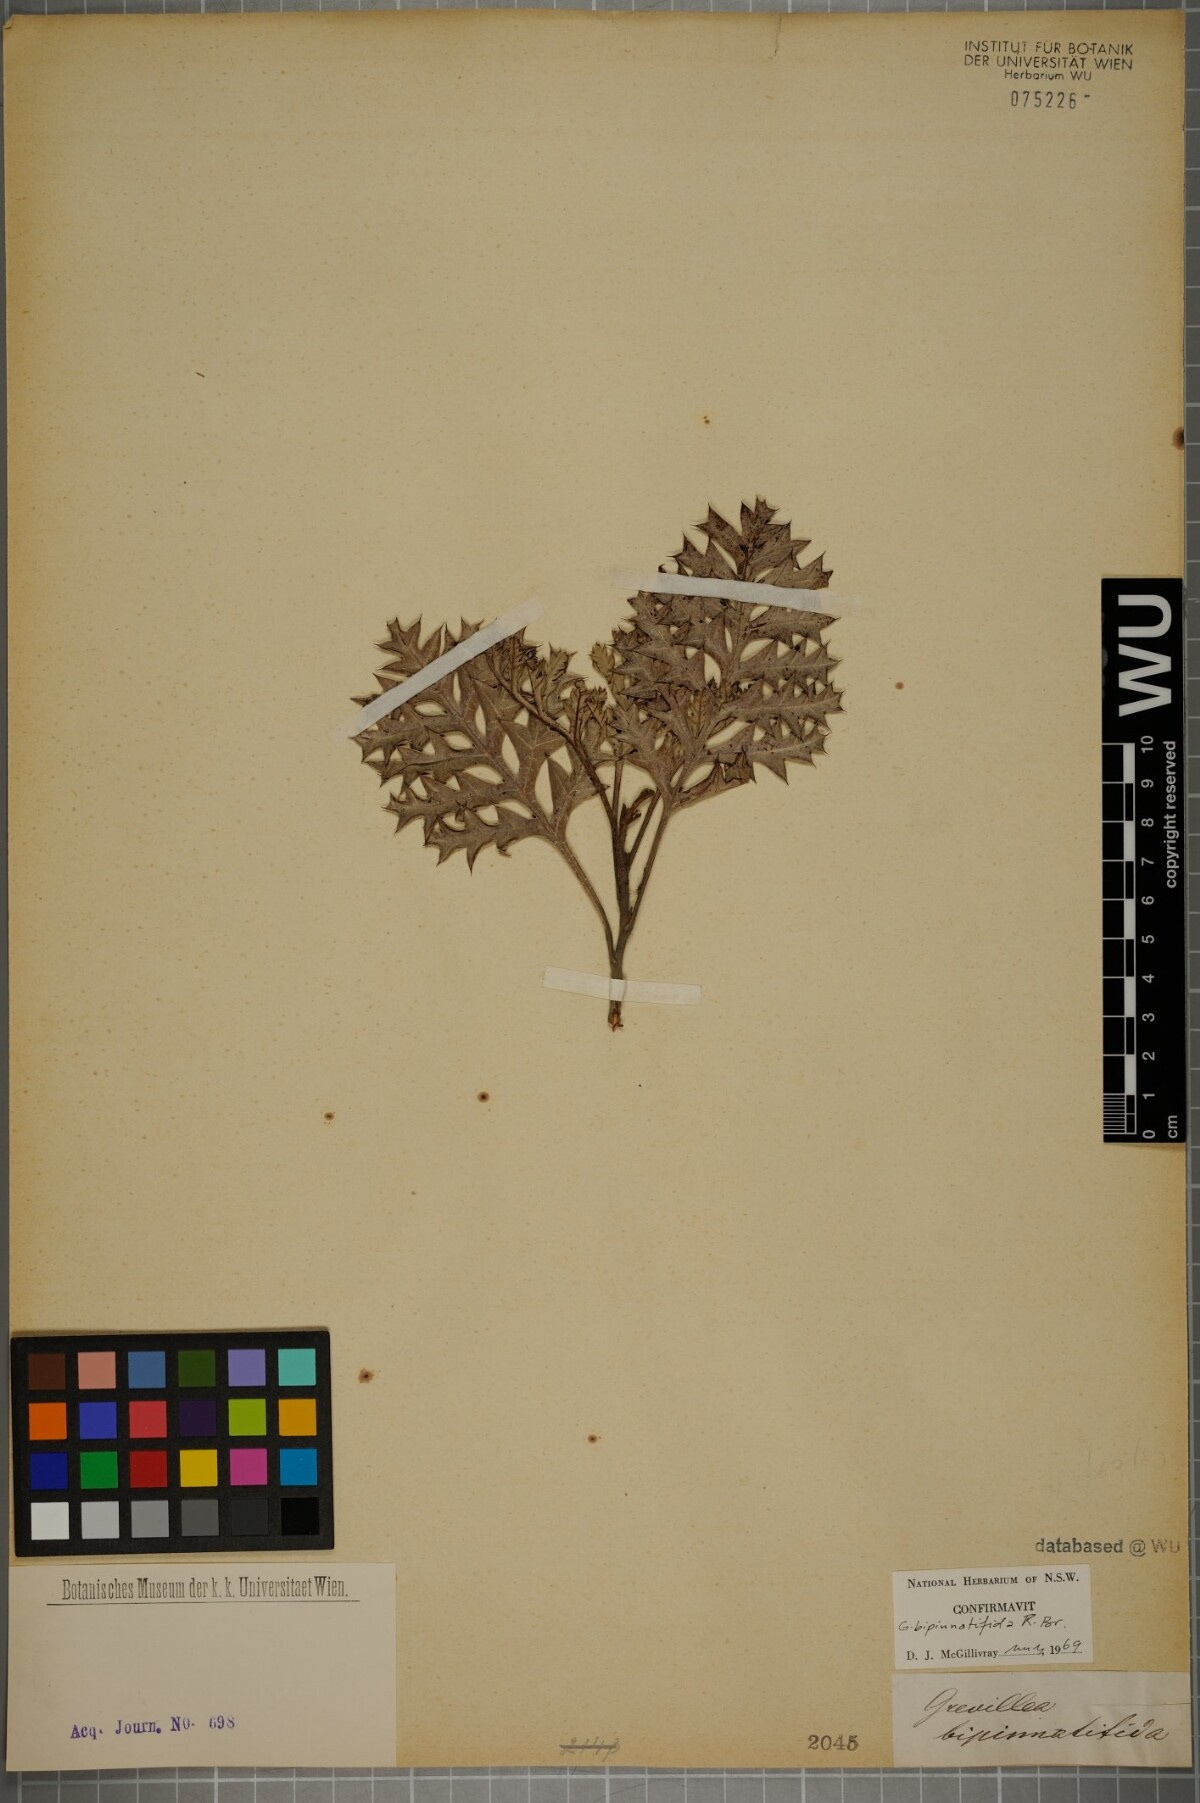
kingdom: Plantae
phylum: Tracheophyta
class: Magnoliopsida
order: Proteales
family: Proteaceae
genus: Grevillea
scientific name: Grevillea bipinnatifida
